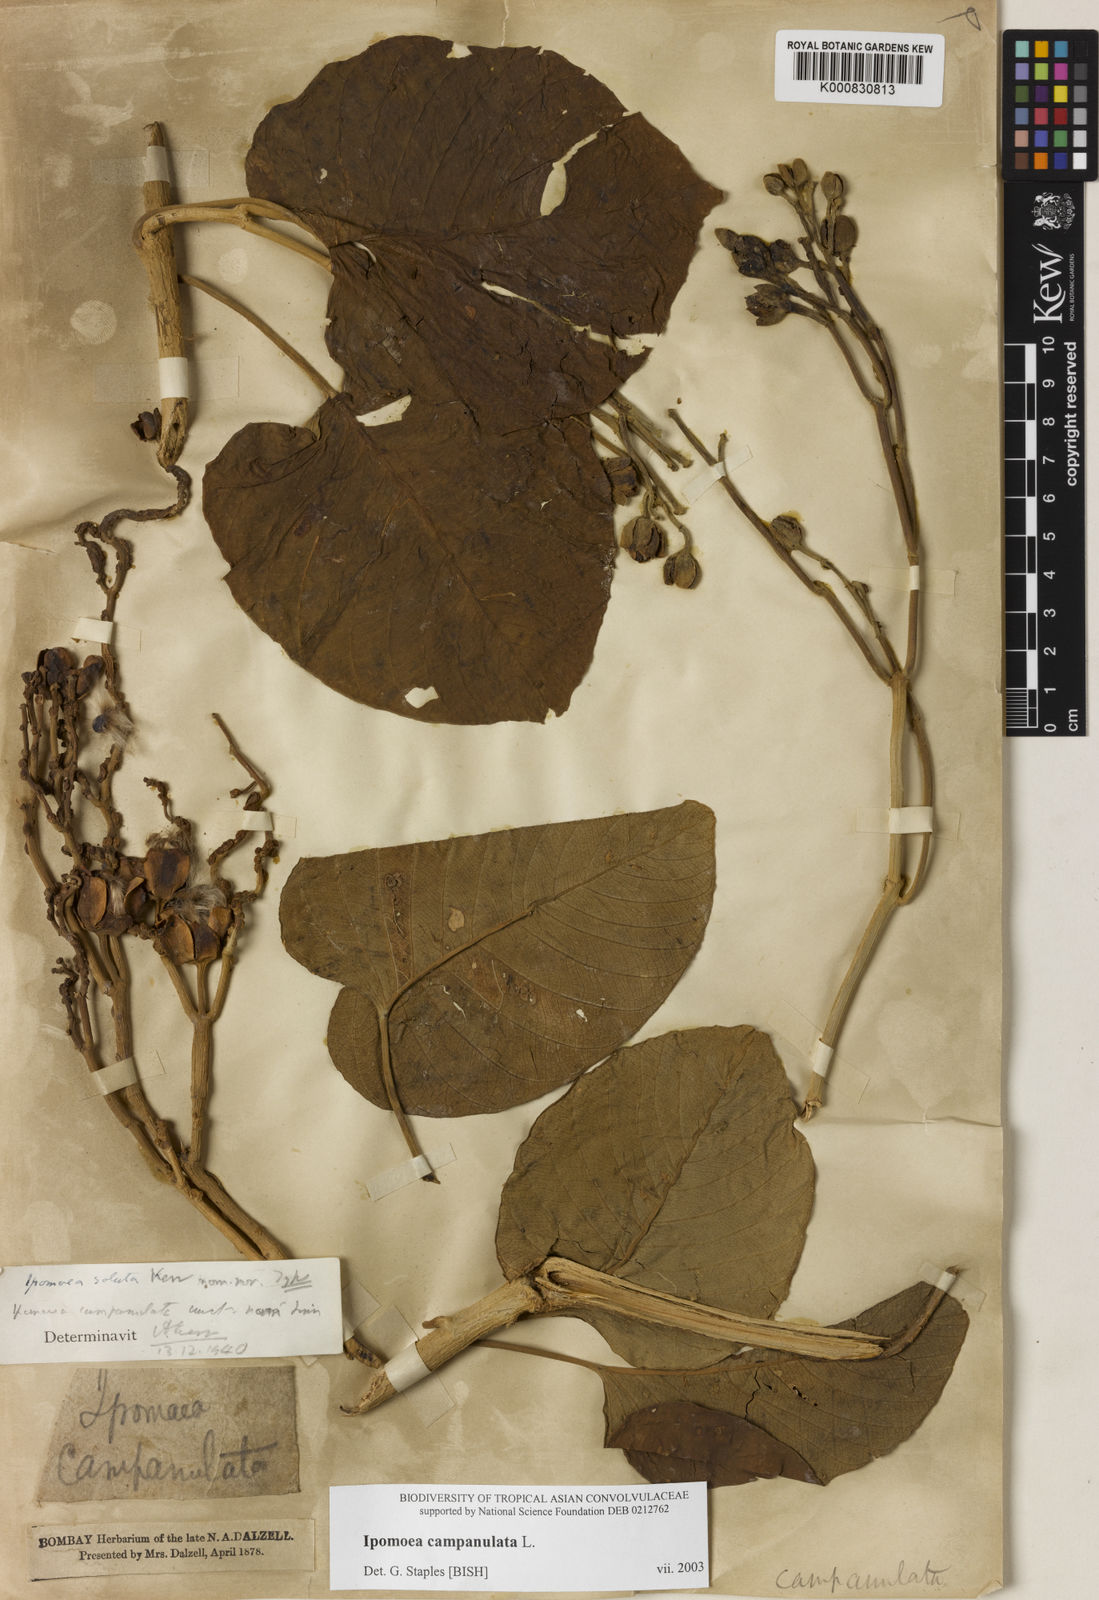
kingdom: Plantae
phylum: Tracheophyta
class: Magnoliopsida
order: Solanales
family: Convolvulaceae
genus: Ipomoea
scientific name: Ipomoea campanulata
